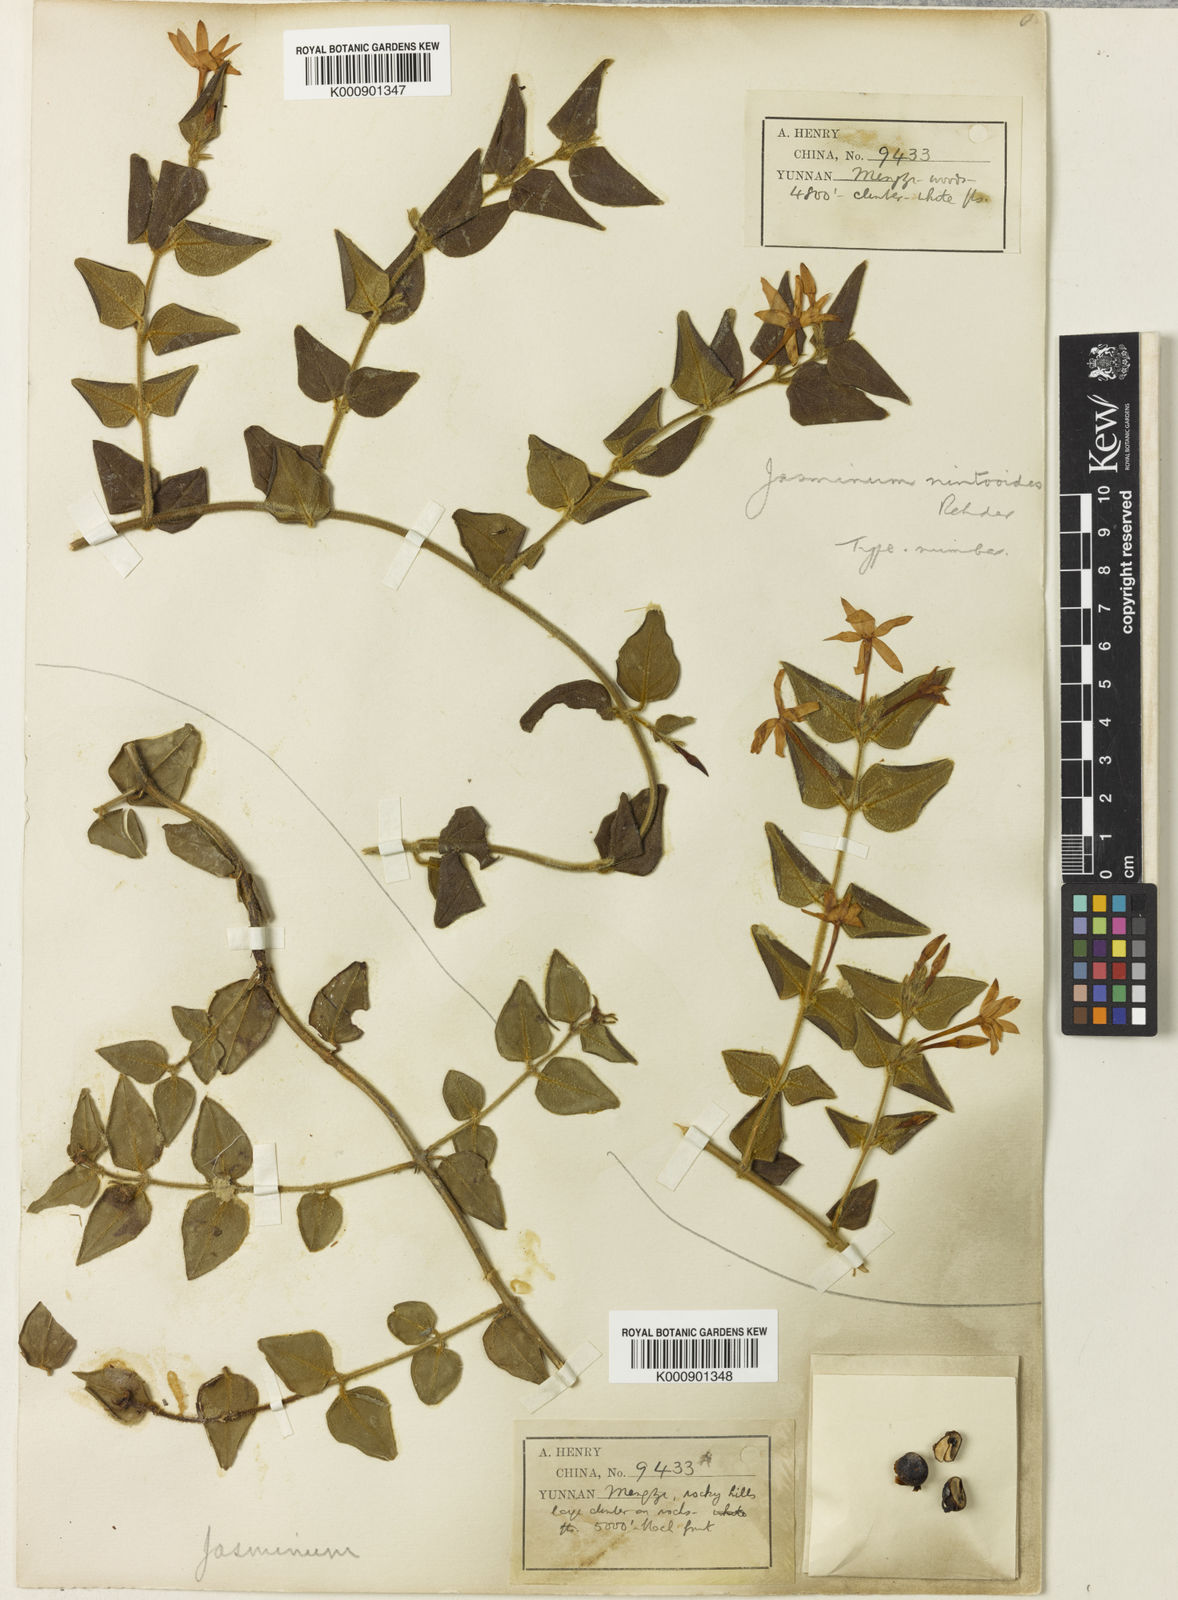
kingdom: Plantae
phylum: Tracheophyta
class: Magnoliopsida
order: Lamiales
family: Oleaceae
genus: Jasminum
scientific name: Jasminum nintooides
